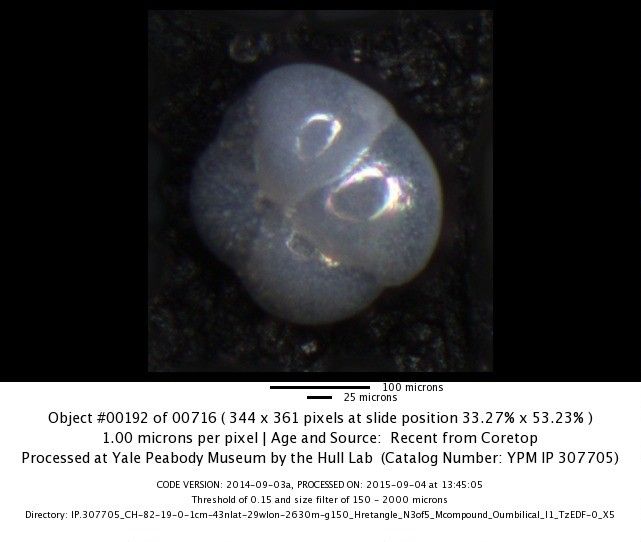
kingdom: Chromista
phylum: Foraminifera
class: Globothalamea
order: Rotaliida
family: Globorotaliidae
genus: Globorotalia
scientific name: Globorotalia scitula
